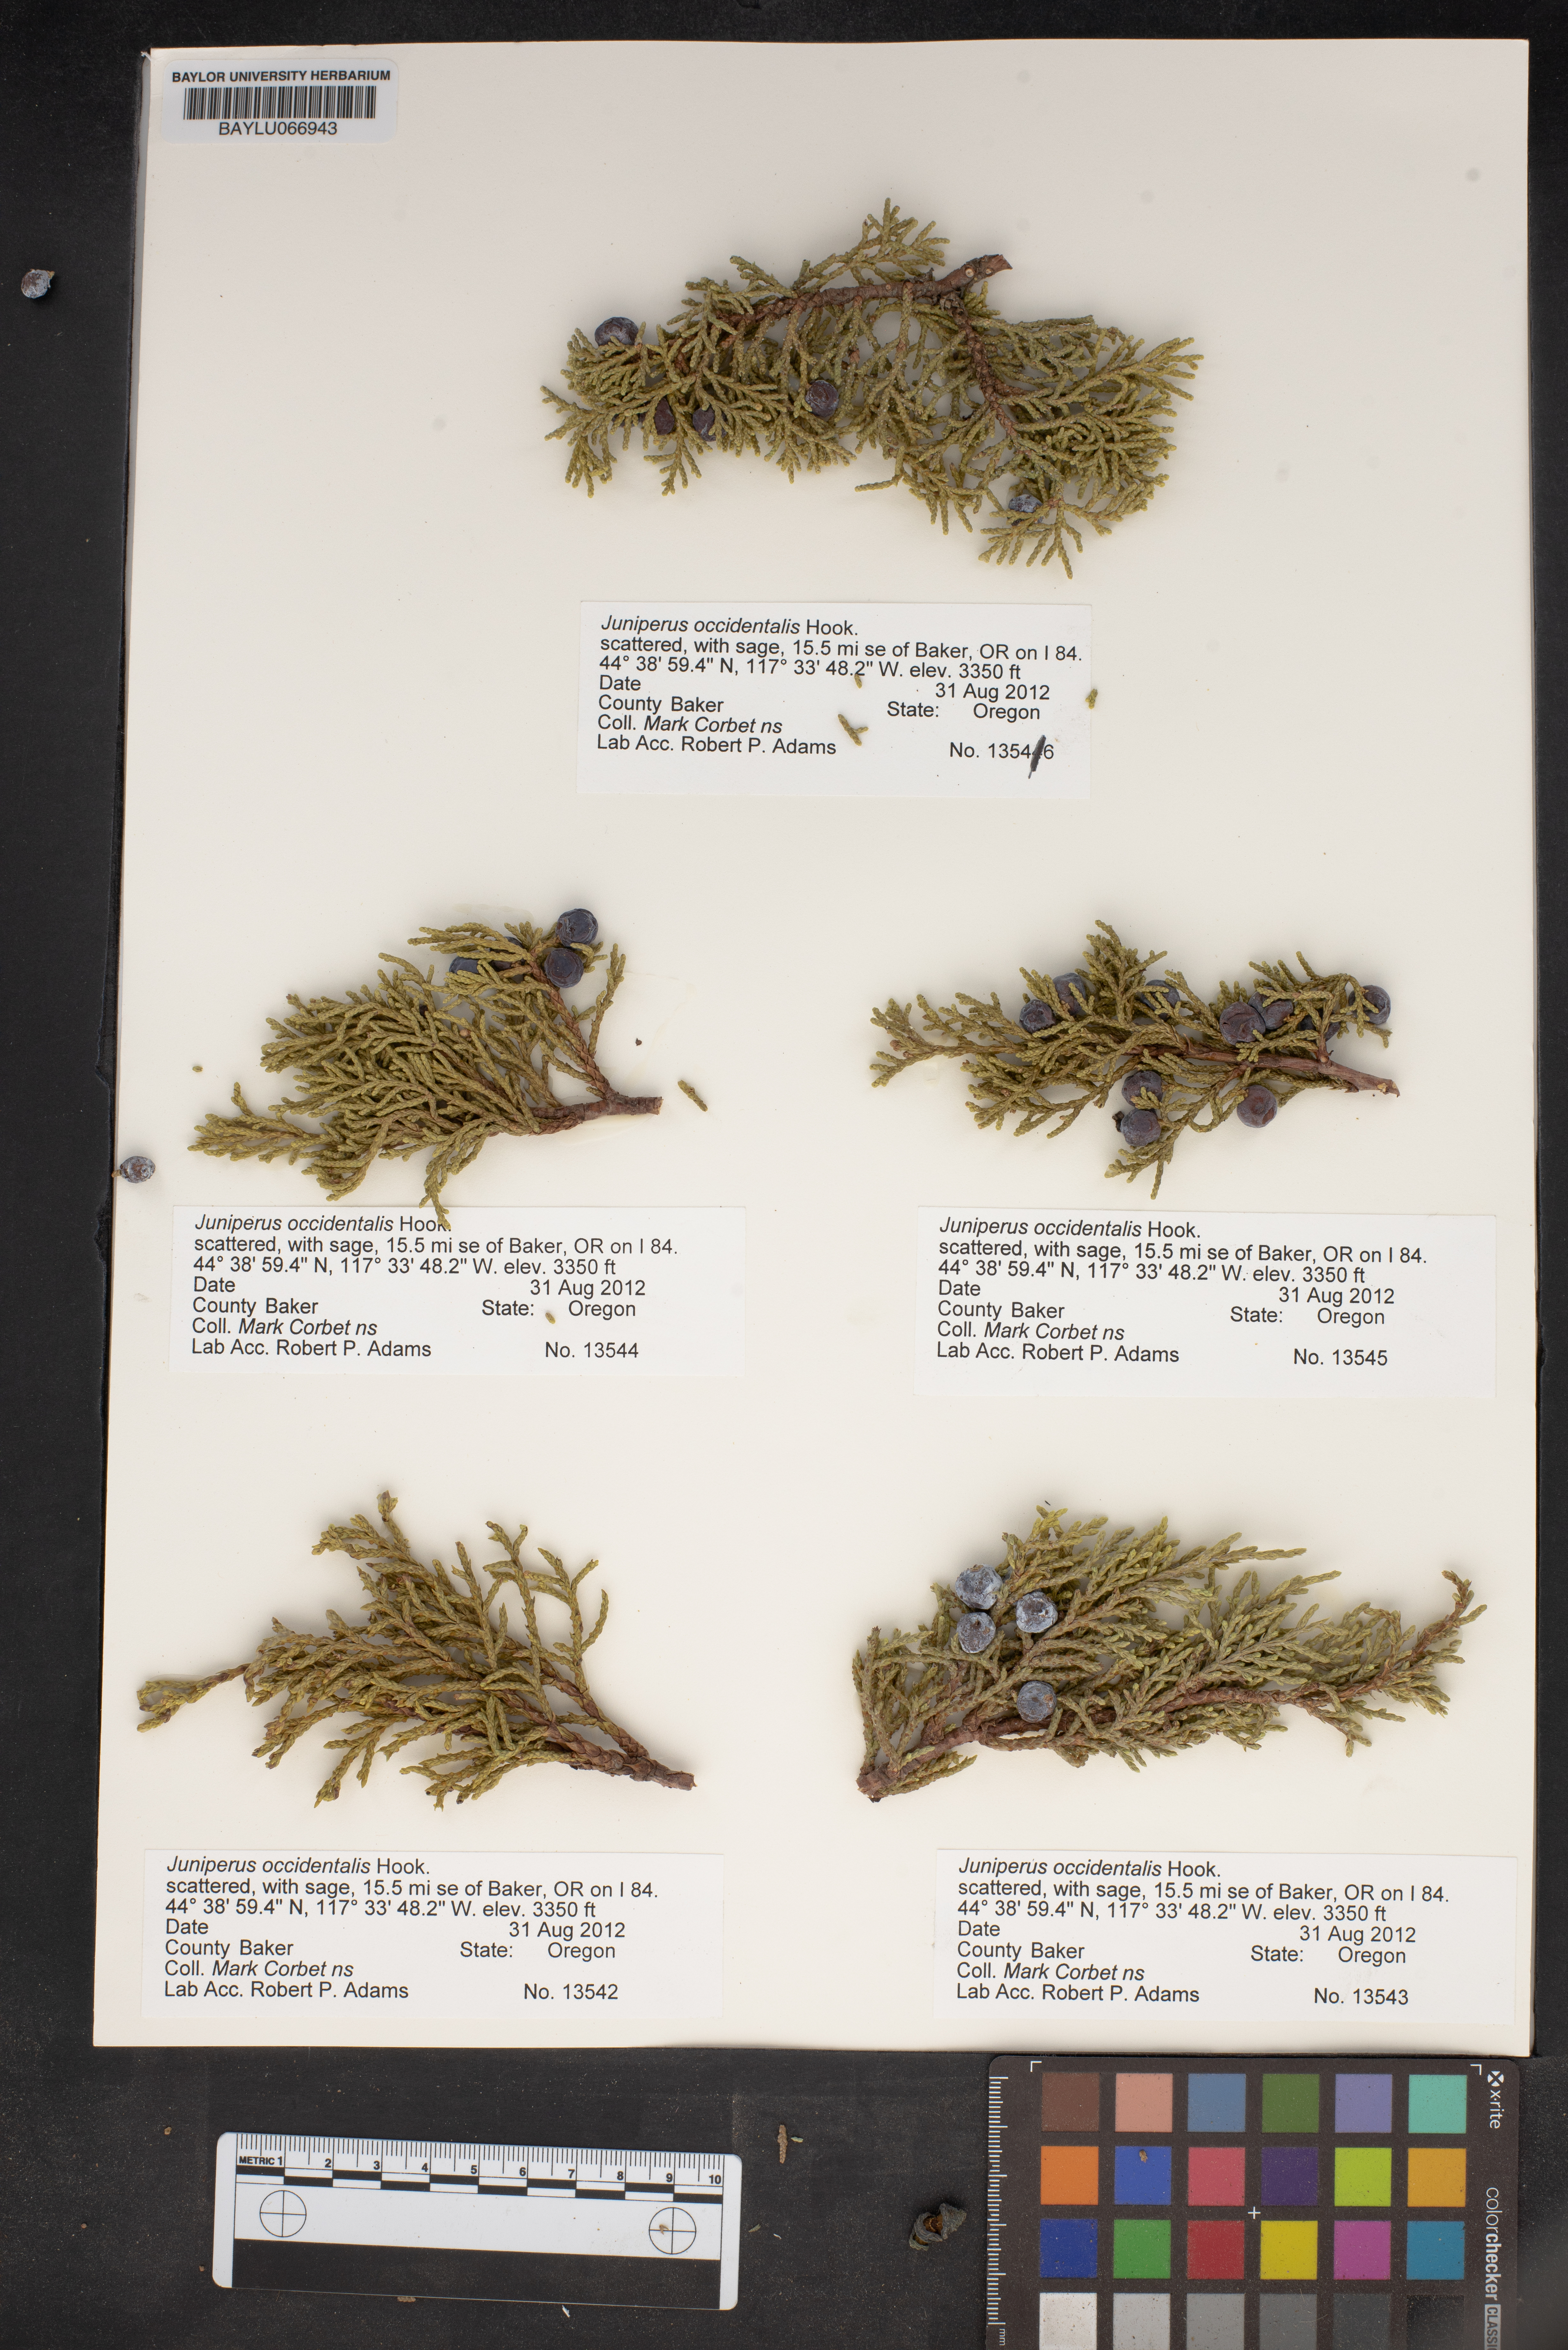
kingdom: Plantae
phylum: Tracheophyta
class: Pinopsida
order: Pinales
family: Cupressaceae
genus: Juniperus
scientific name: Juniperus occidentalis
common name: Western juniper
